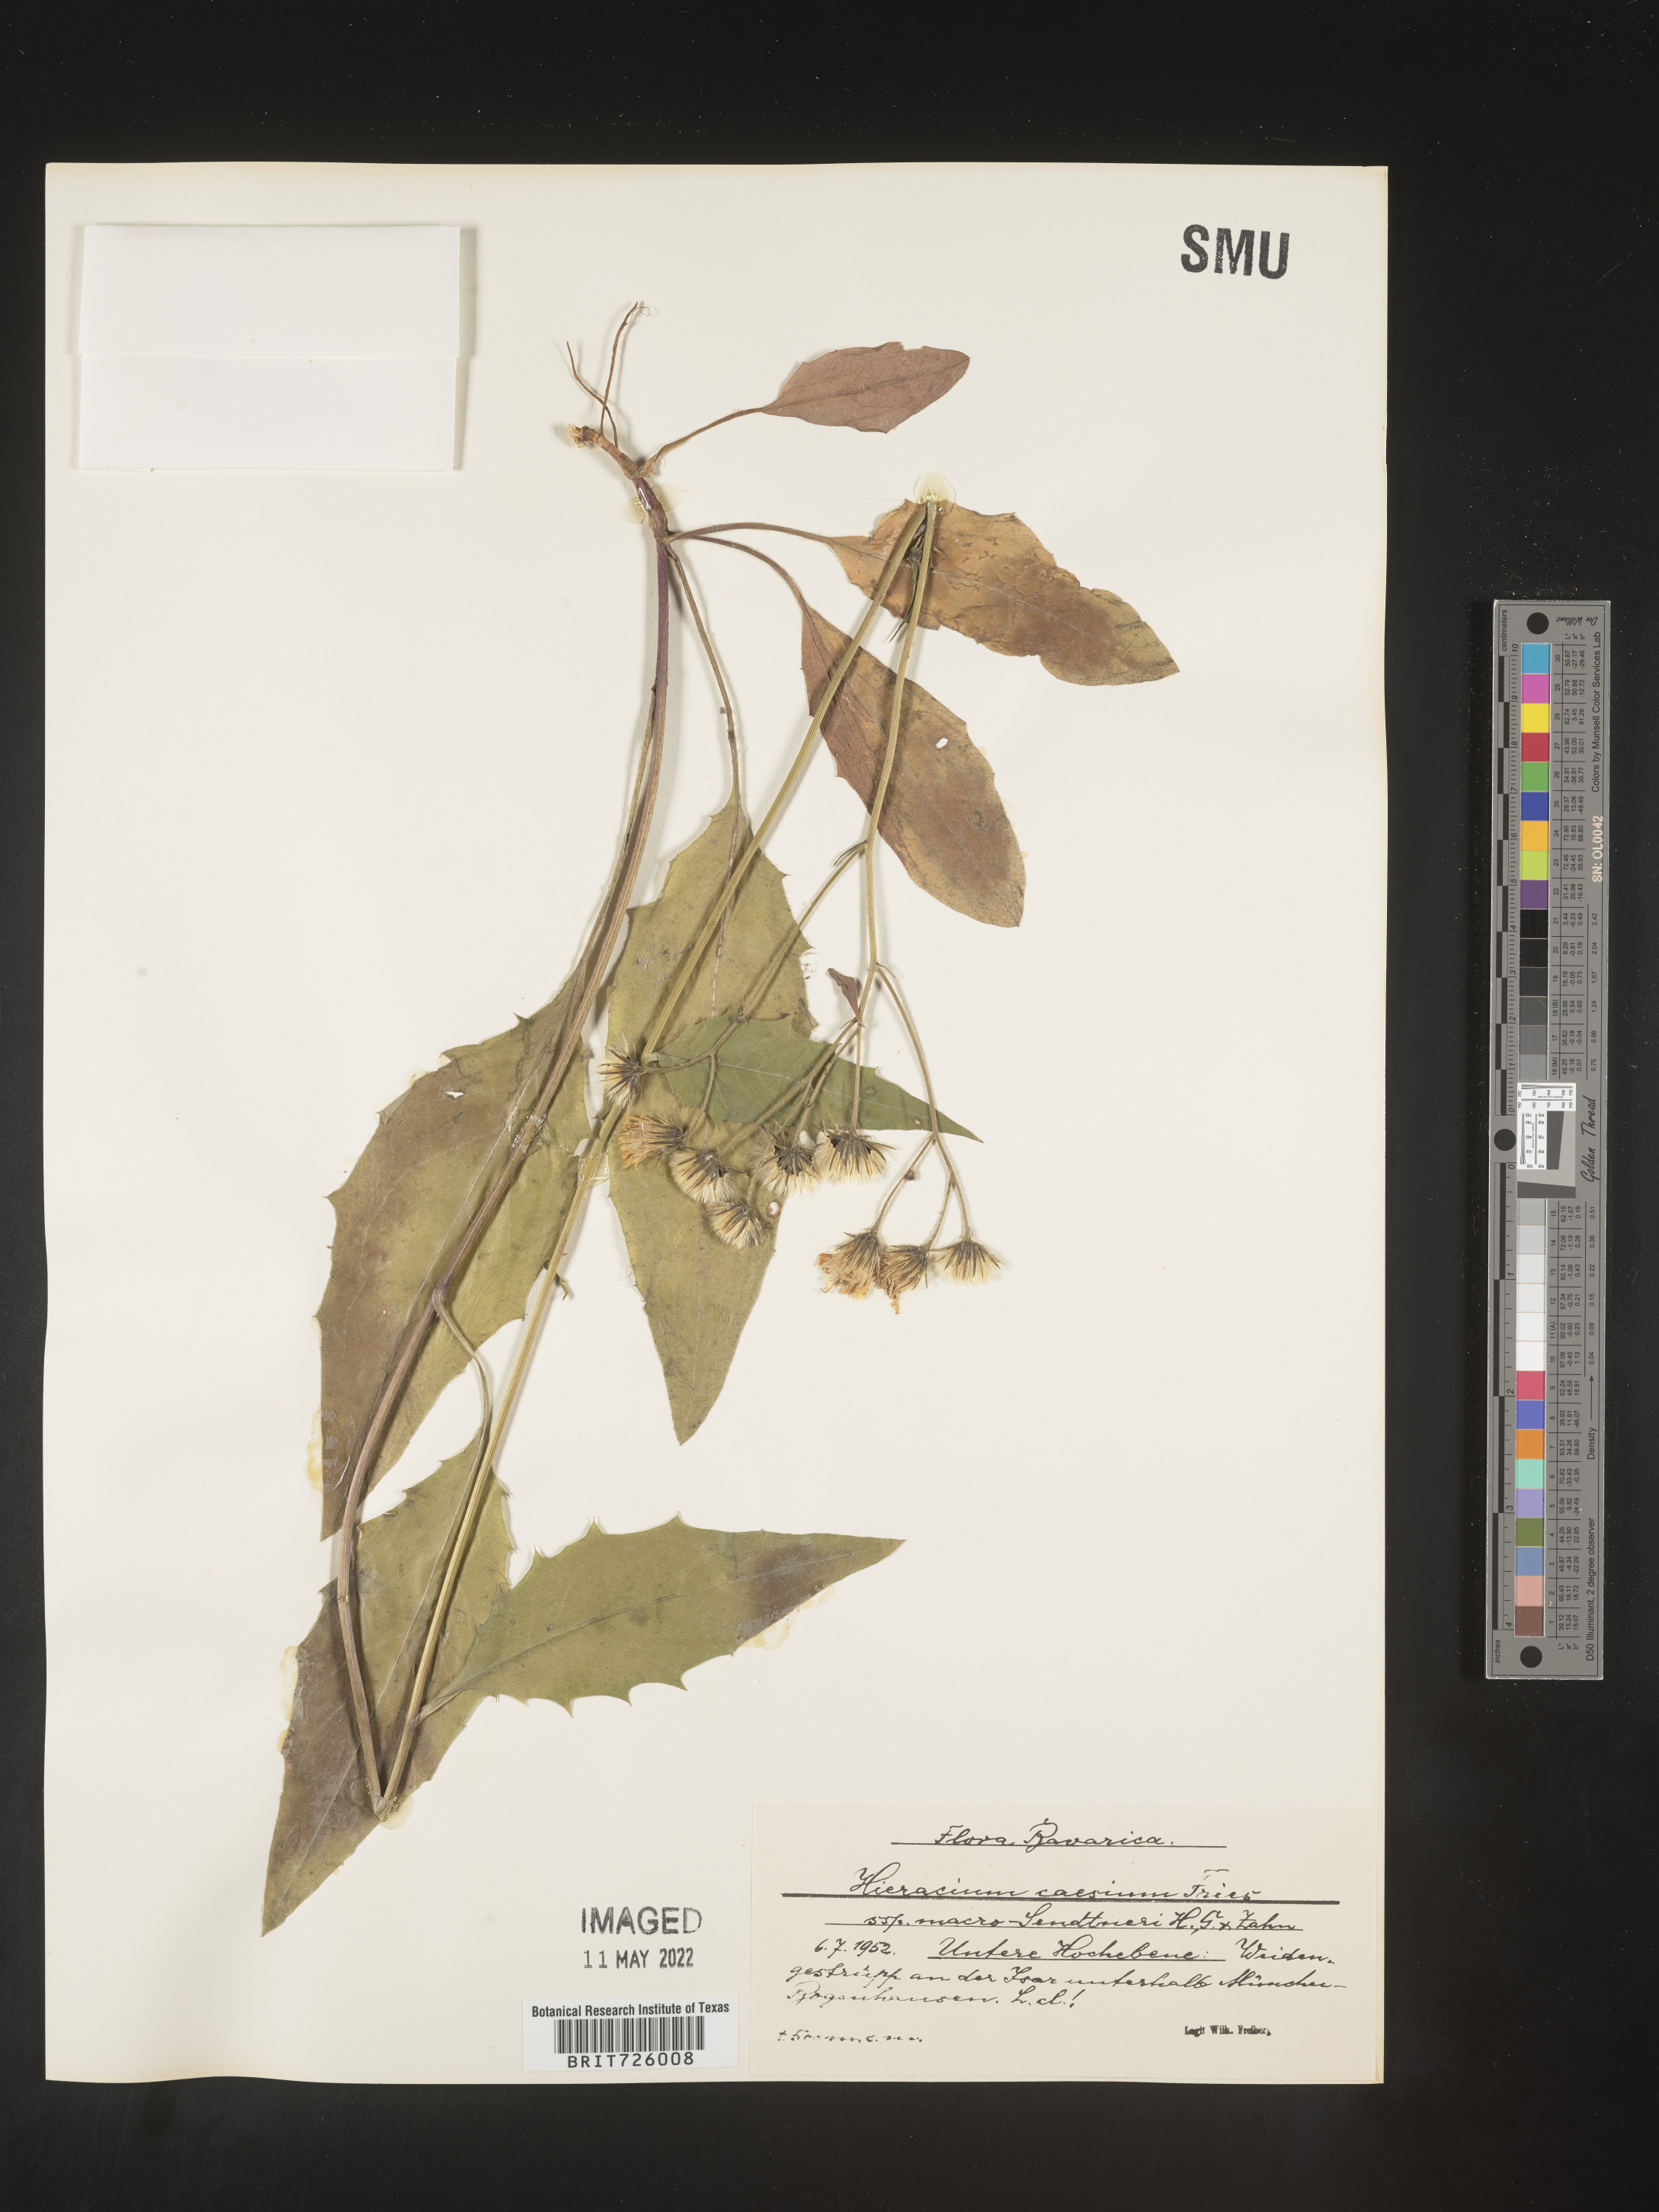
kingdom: Plantae
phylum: Tracheophyta
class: Magnoliopsida
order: Asterales
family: Asteraceae
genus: Hieracium
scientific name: Hieracium
